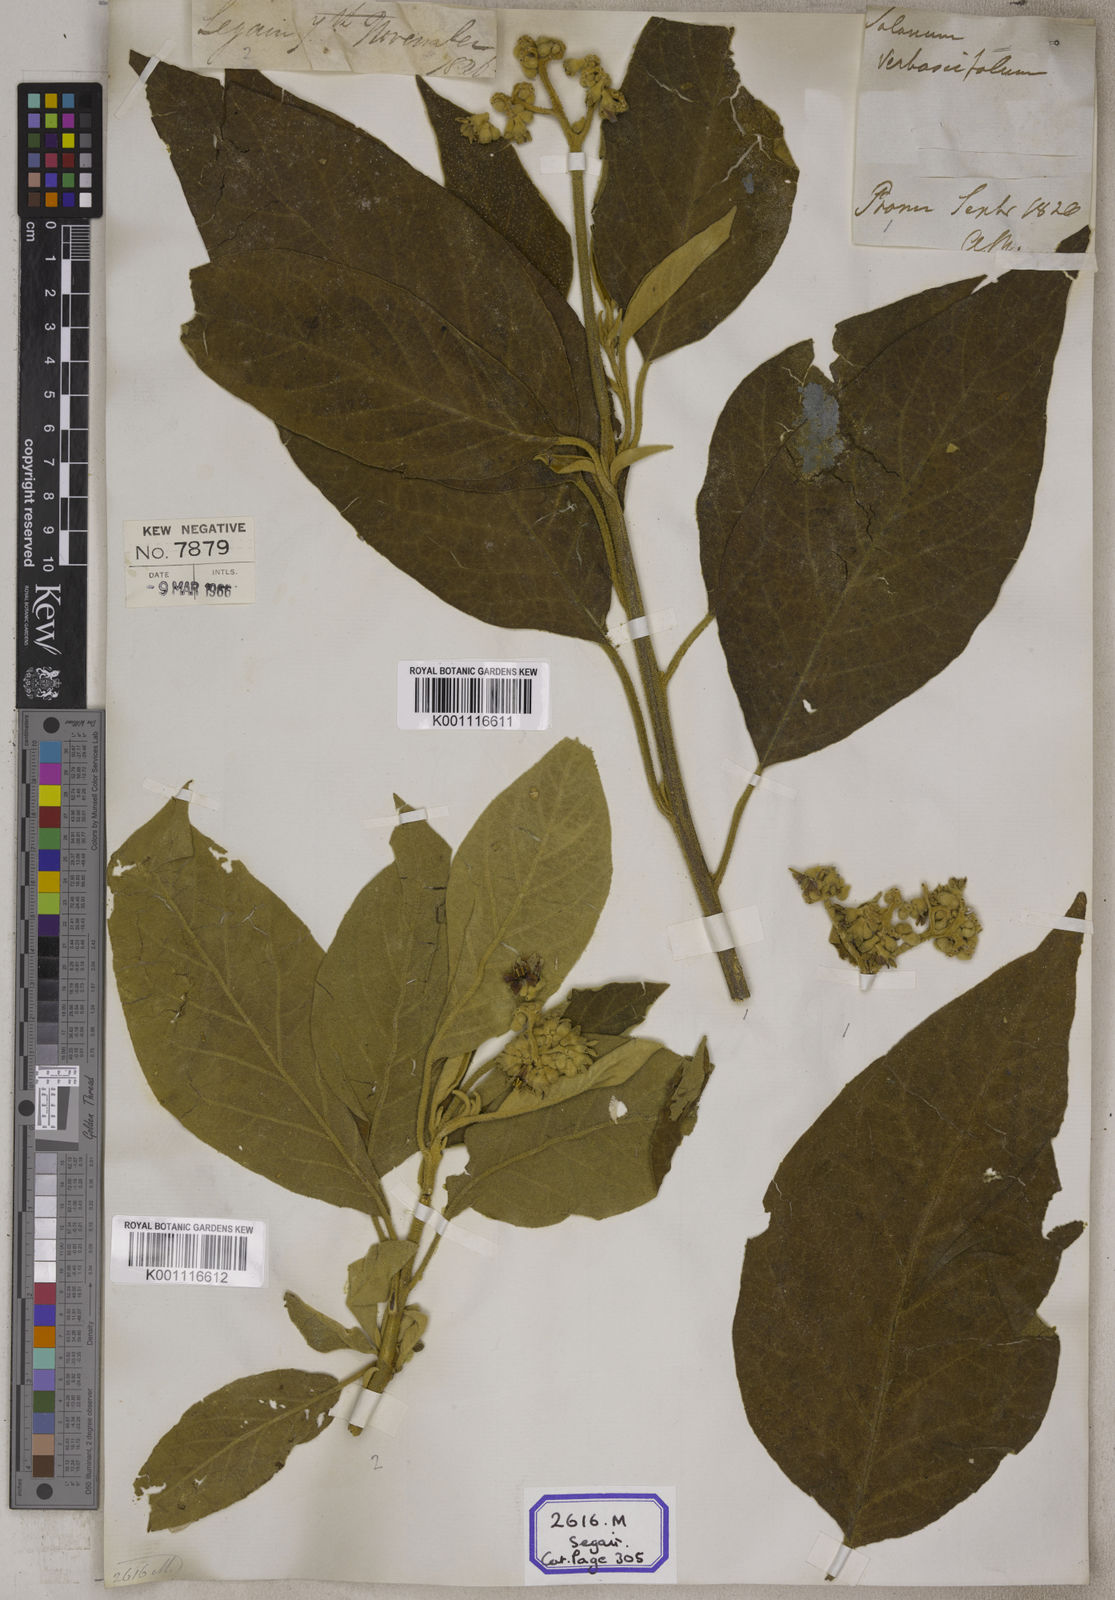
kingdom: Plantae
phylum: Tracheophyta
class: Magnoliopsida
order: Solanales
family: Solanaceae
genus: Solanum
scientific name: Solanum donianum
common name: Mullein nightshade
